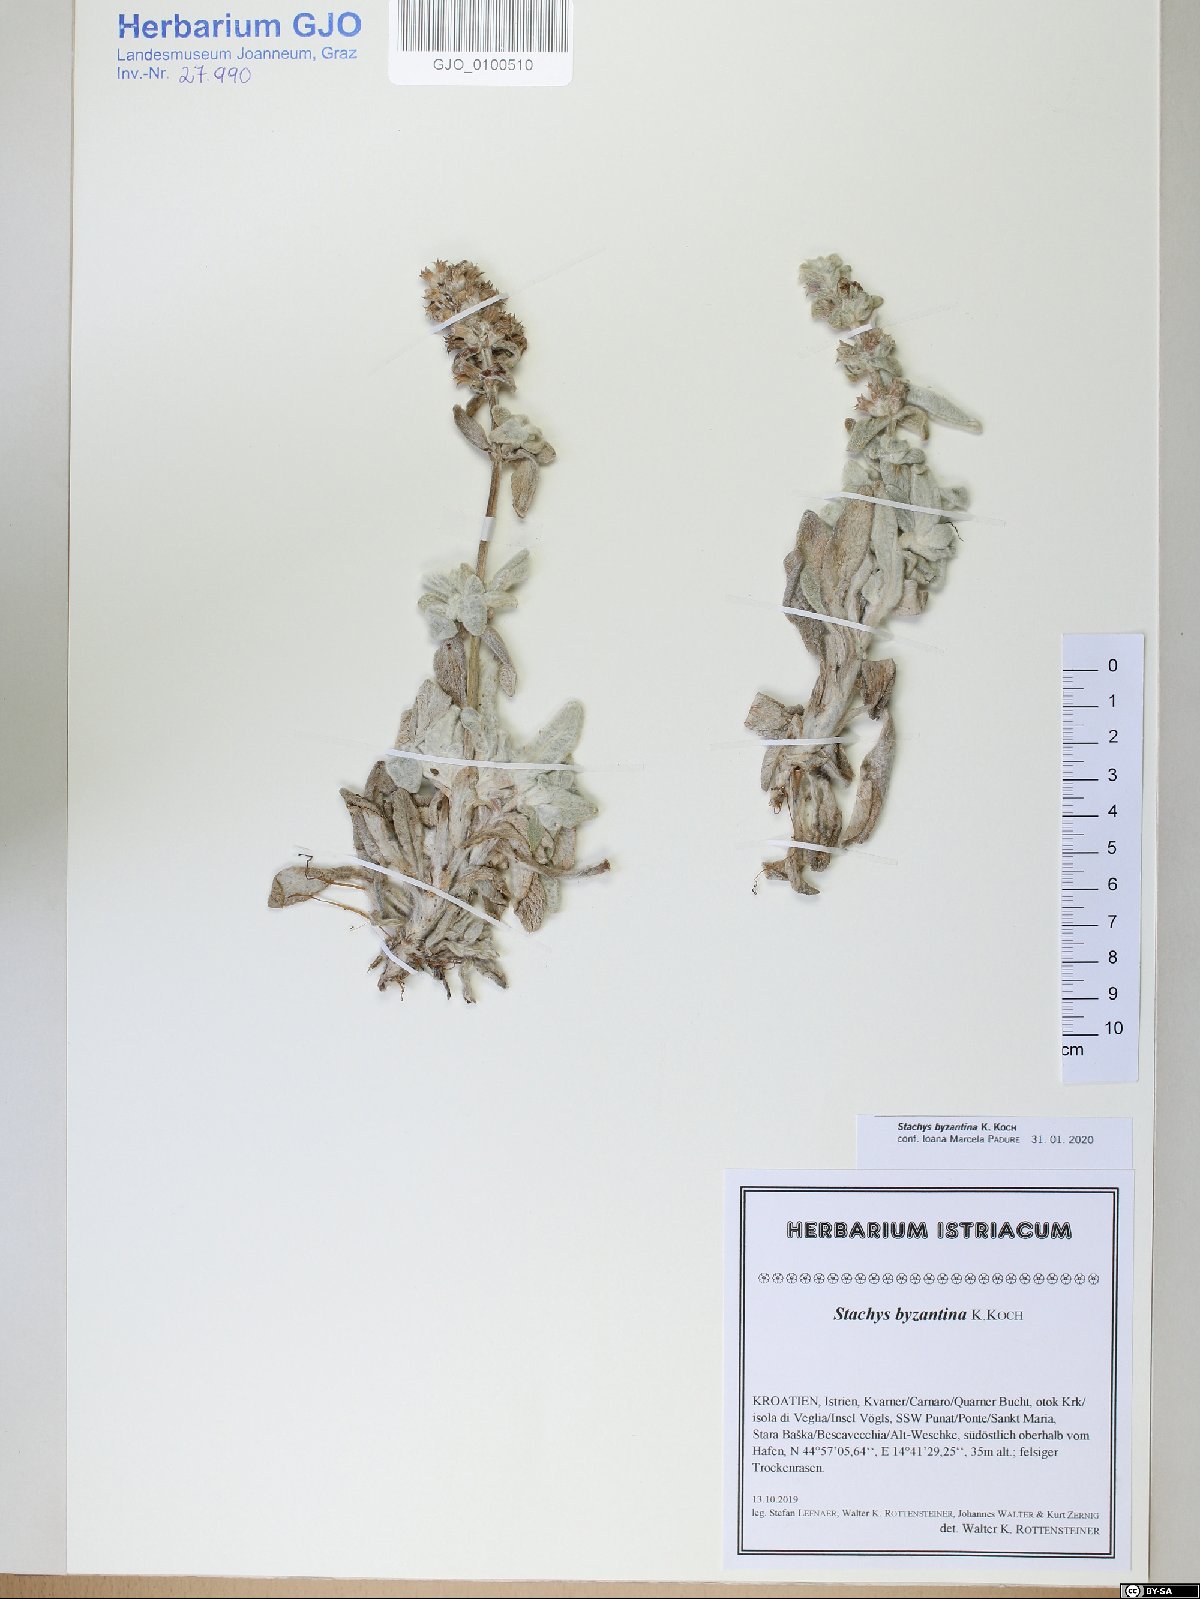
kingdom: Plantae
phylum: Tracheophyta
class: Magnoliopsida
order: Lamiales
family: Lamiaceae
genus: Stachys
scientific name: Stachys byzantina
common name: Lamb's-ear
